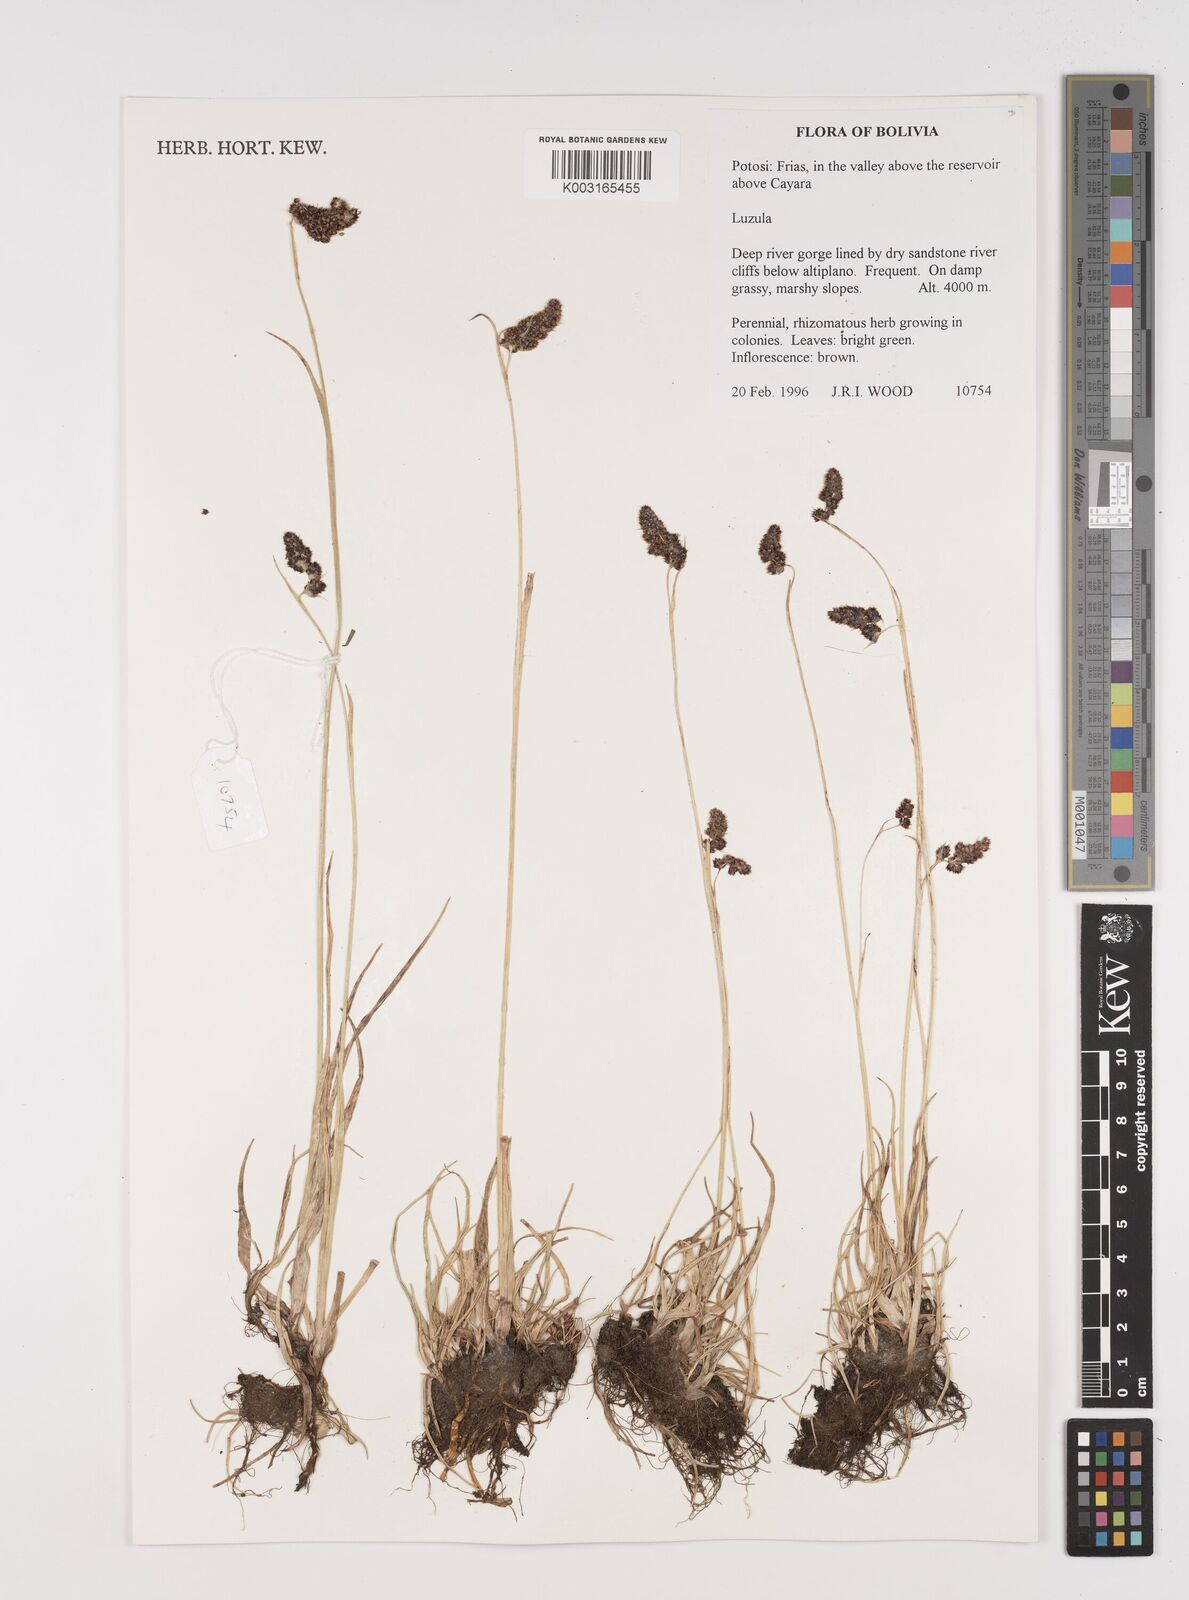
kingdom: Plantae
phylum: Tracheophyta
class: Liliopsida
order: Poales
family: Juncaceae
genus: Luzula
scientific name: Luzula
